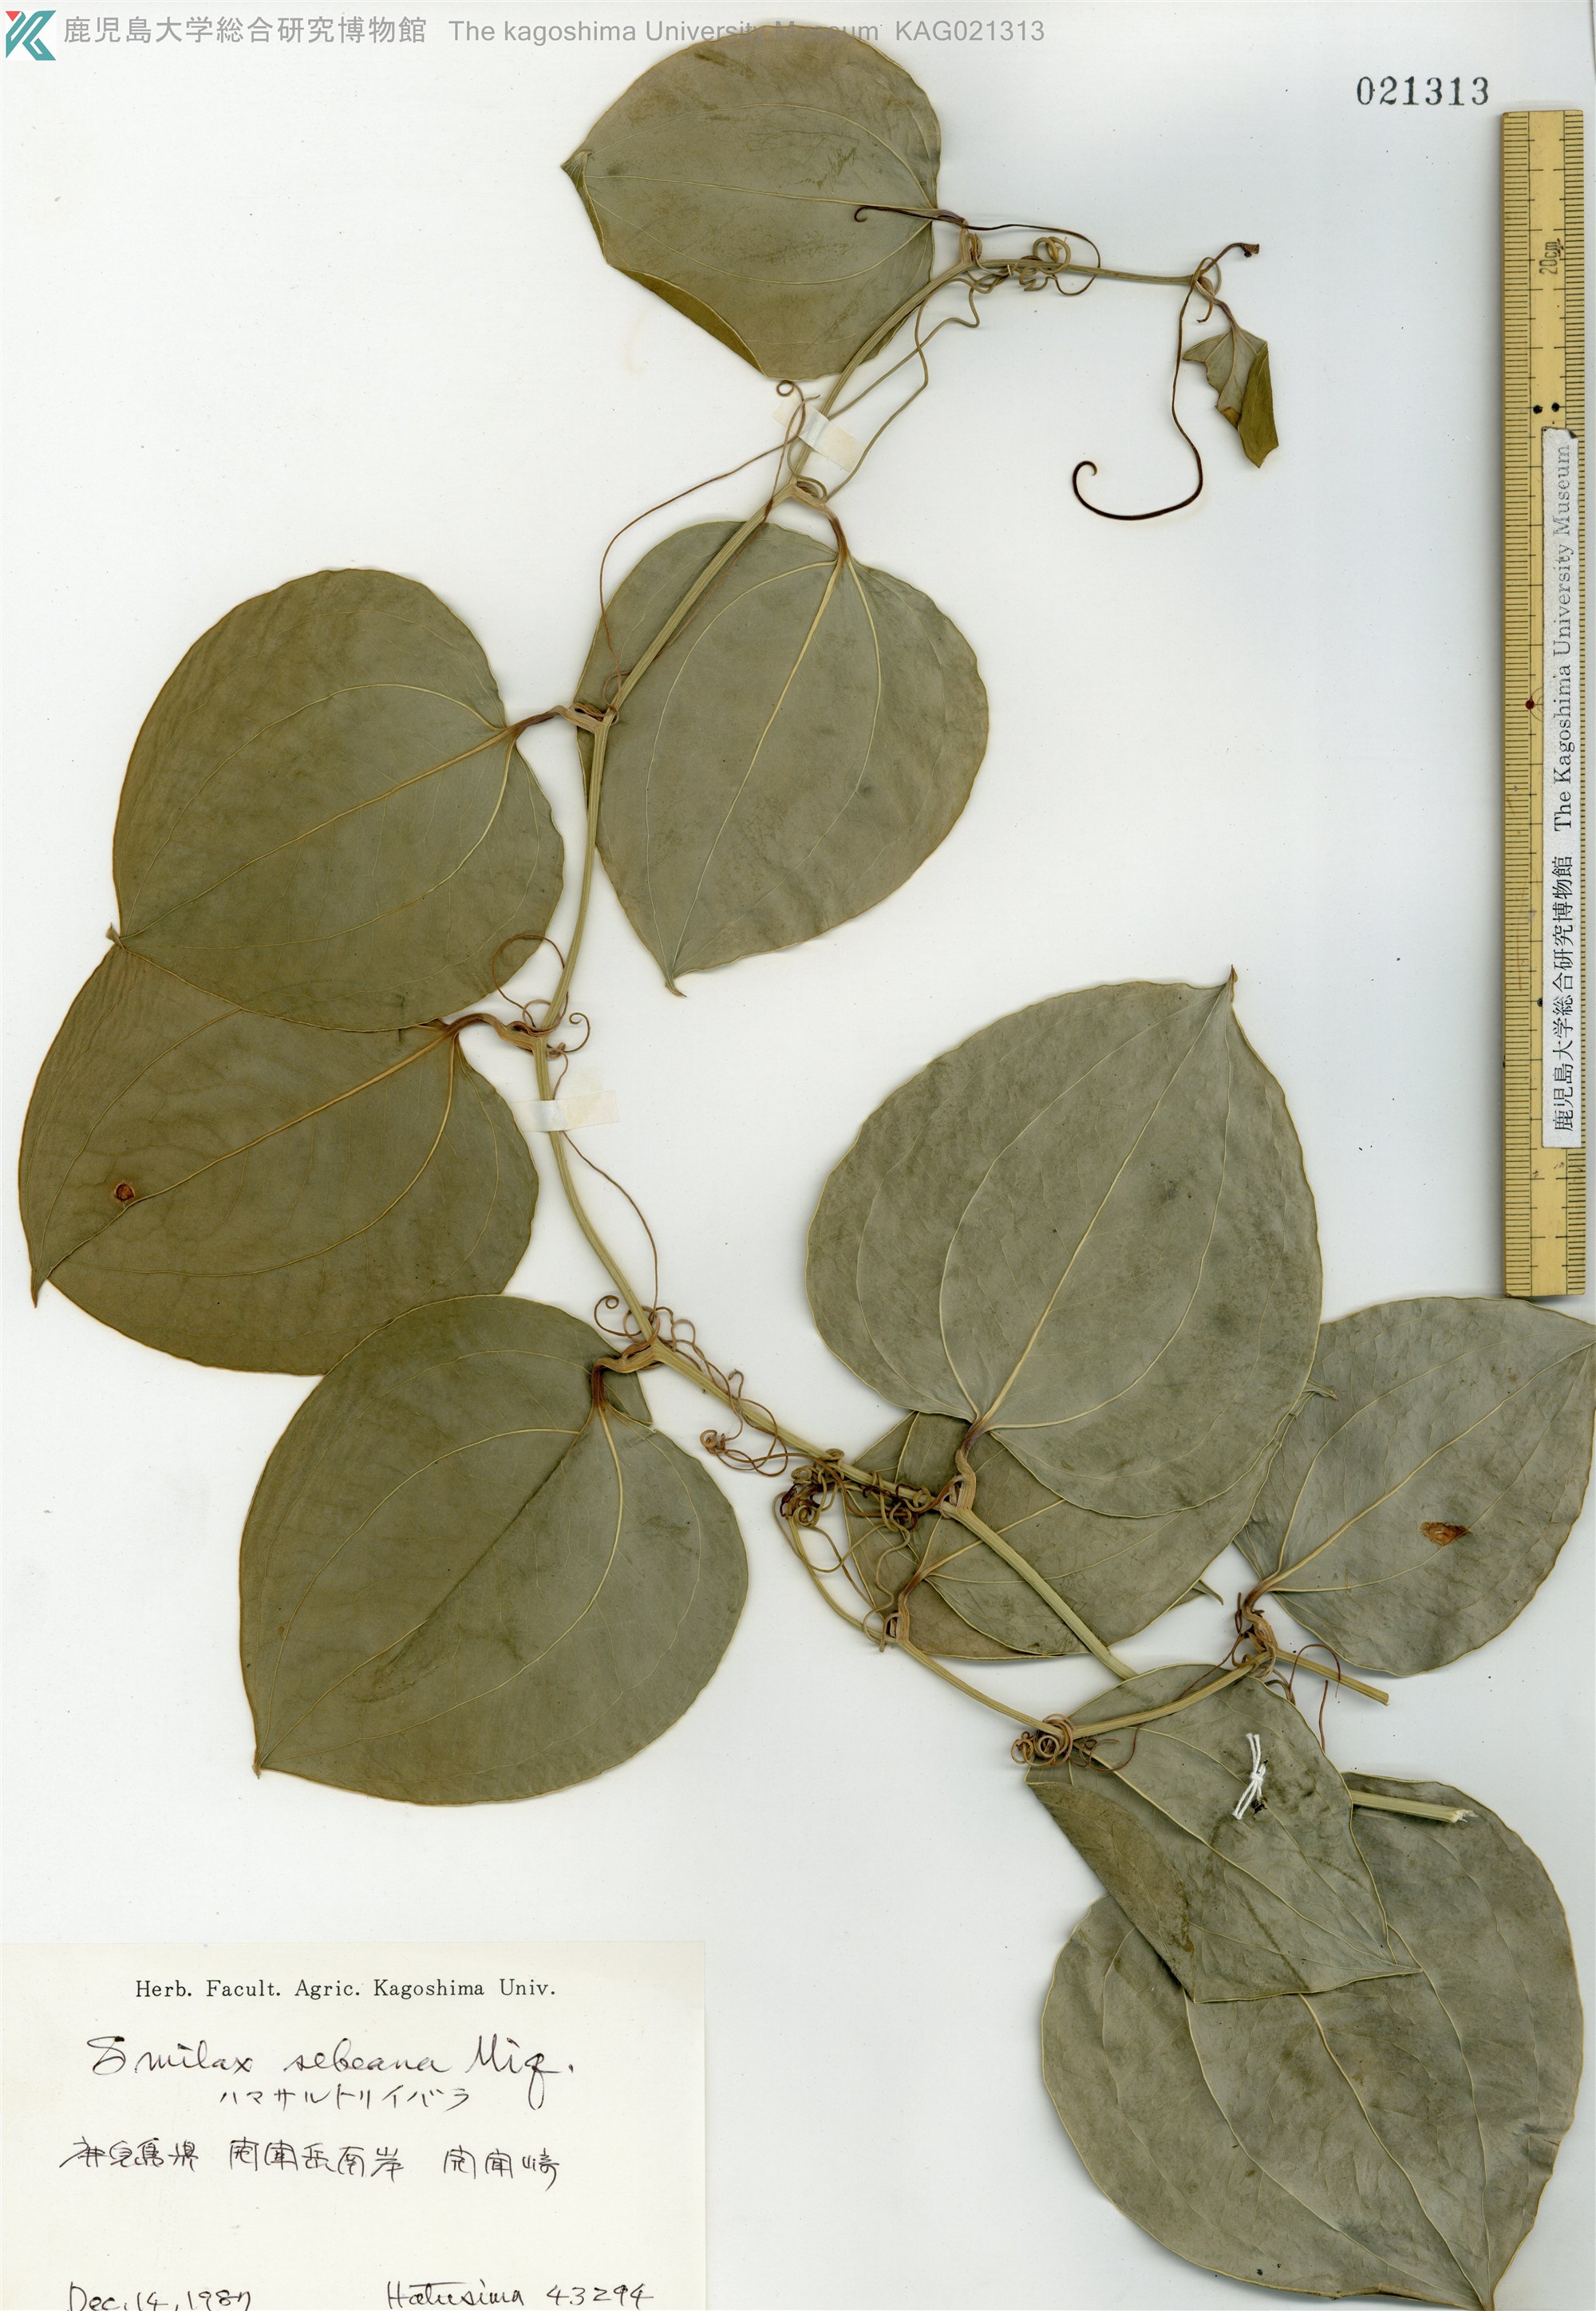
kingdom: Plantae
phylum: Tracheophyta
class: Liliopsida
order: Liliales
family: Smilacaceae
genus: Smilax
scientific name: Smilax sebeana
